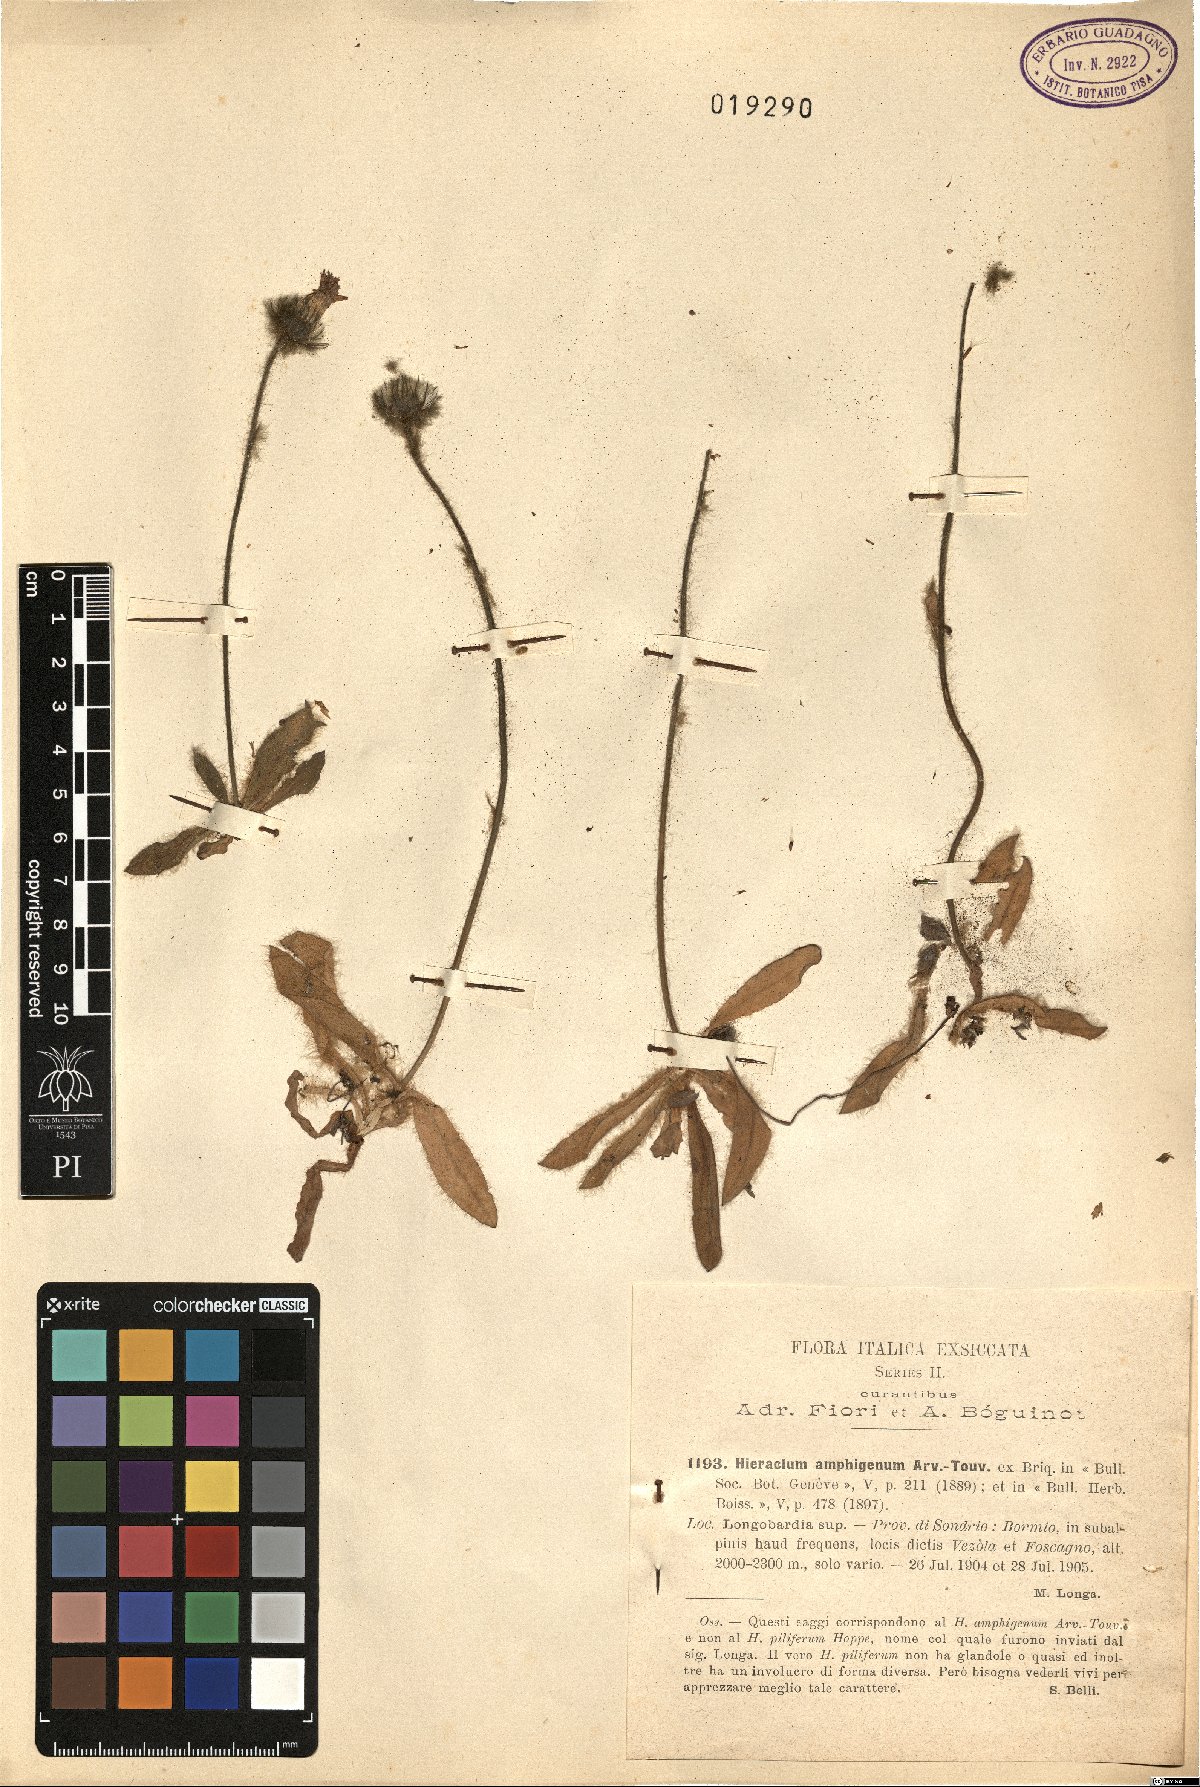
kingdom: Plantae
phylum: Tracheophyta
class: Magnoliopsida
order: Asterales
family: Asteraceae
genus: Hieracium
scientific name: Hieracium piliferum
